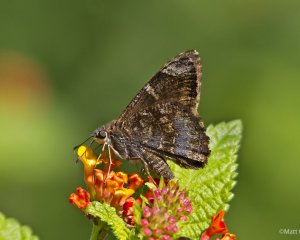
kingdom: Animalia
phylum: Arthropoda
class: Insecta
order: Lepidoptera
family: Hesperiidae
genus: Caicella
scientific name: Caicella calchas
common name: Mimosa Skipper
